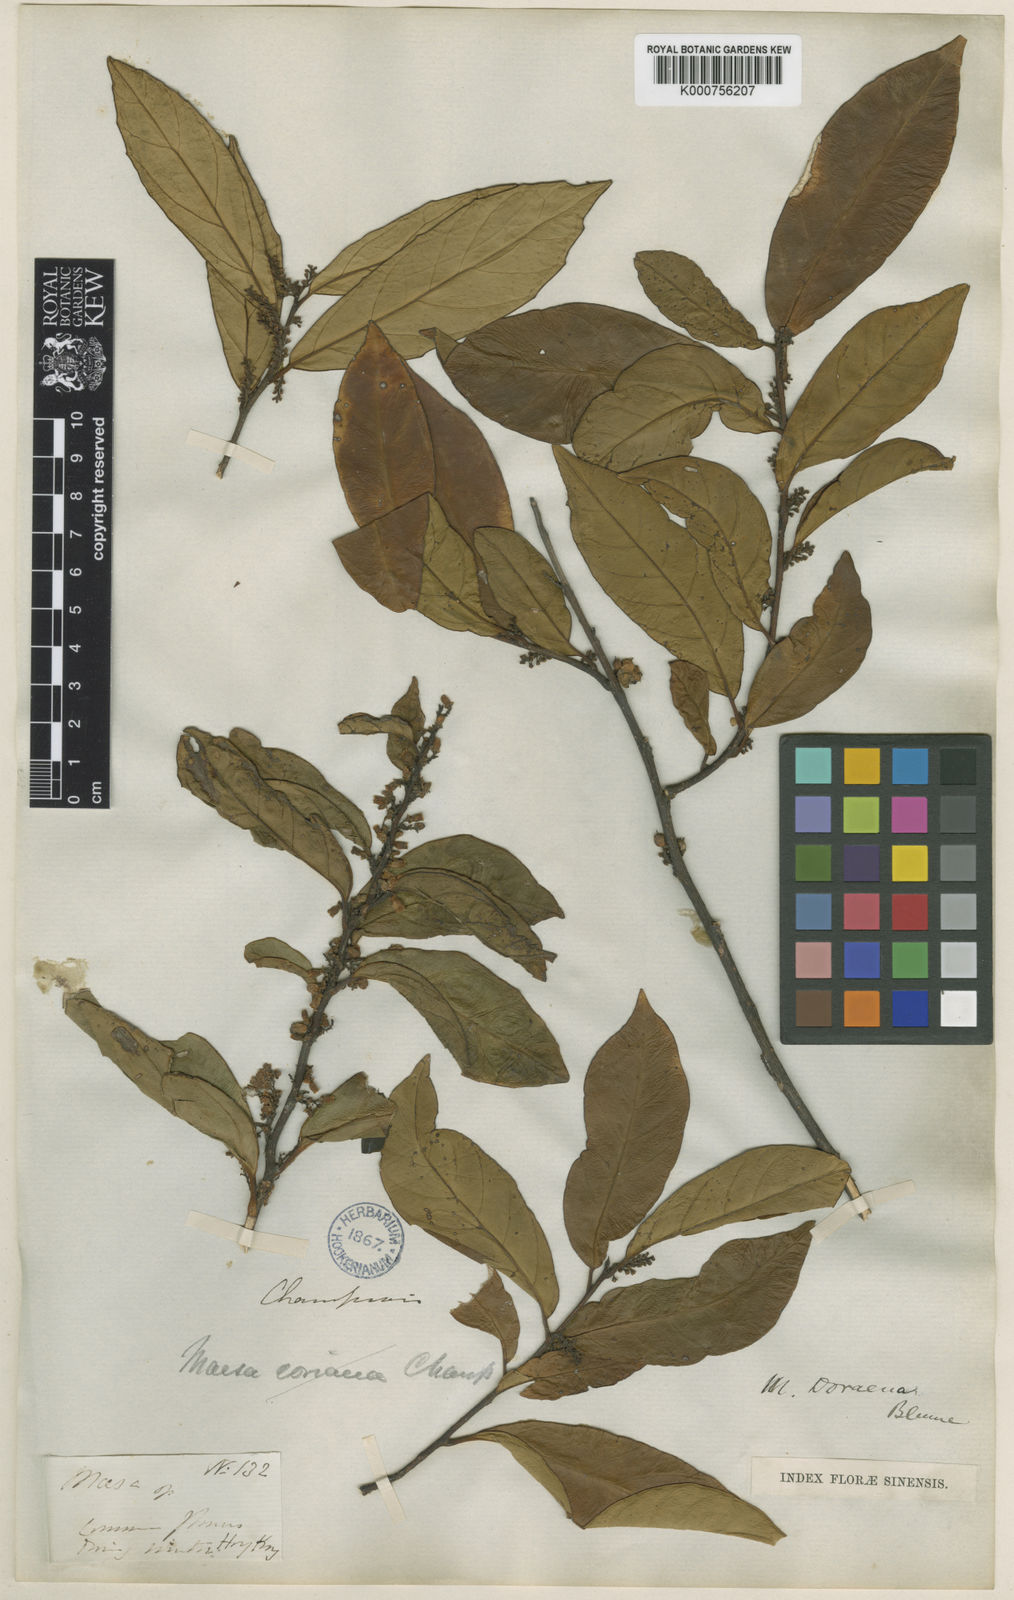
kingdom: Plantae
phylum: Tracheophyta
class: Magnoliopsida
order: Ericales
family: Primulaceae
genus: Maesa
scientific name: Maesa
